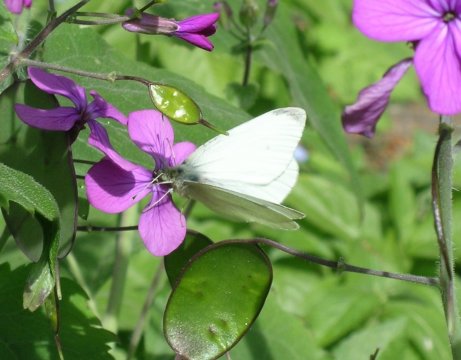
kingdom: Animalia
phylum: Arthropoda
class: Insecta
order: Lepidoptera
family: Pieridae
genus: Pieris
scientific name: Pieris rapae
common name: Cabbage White
